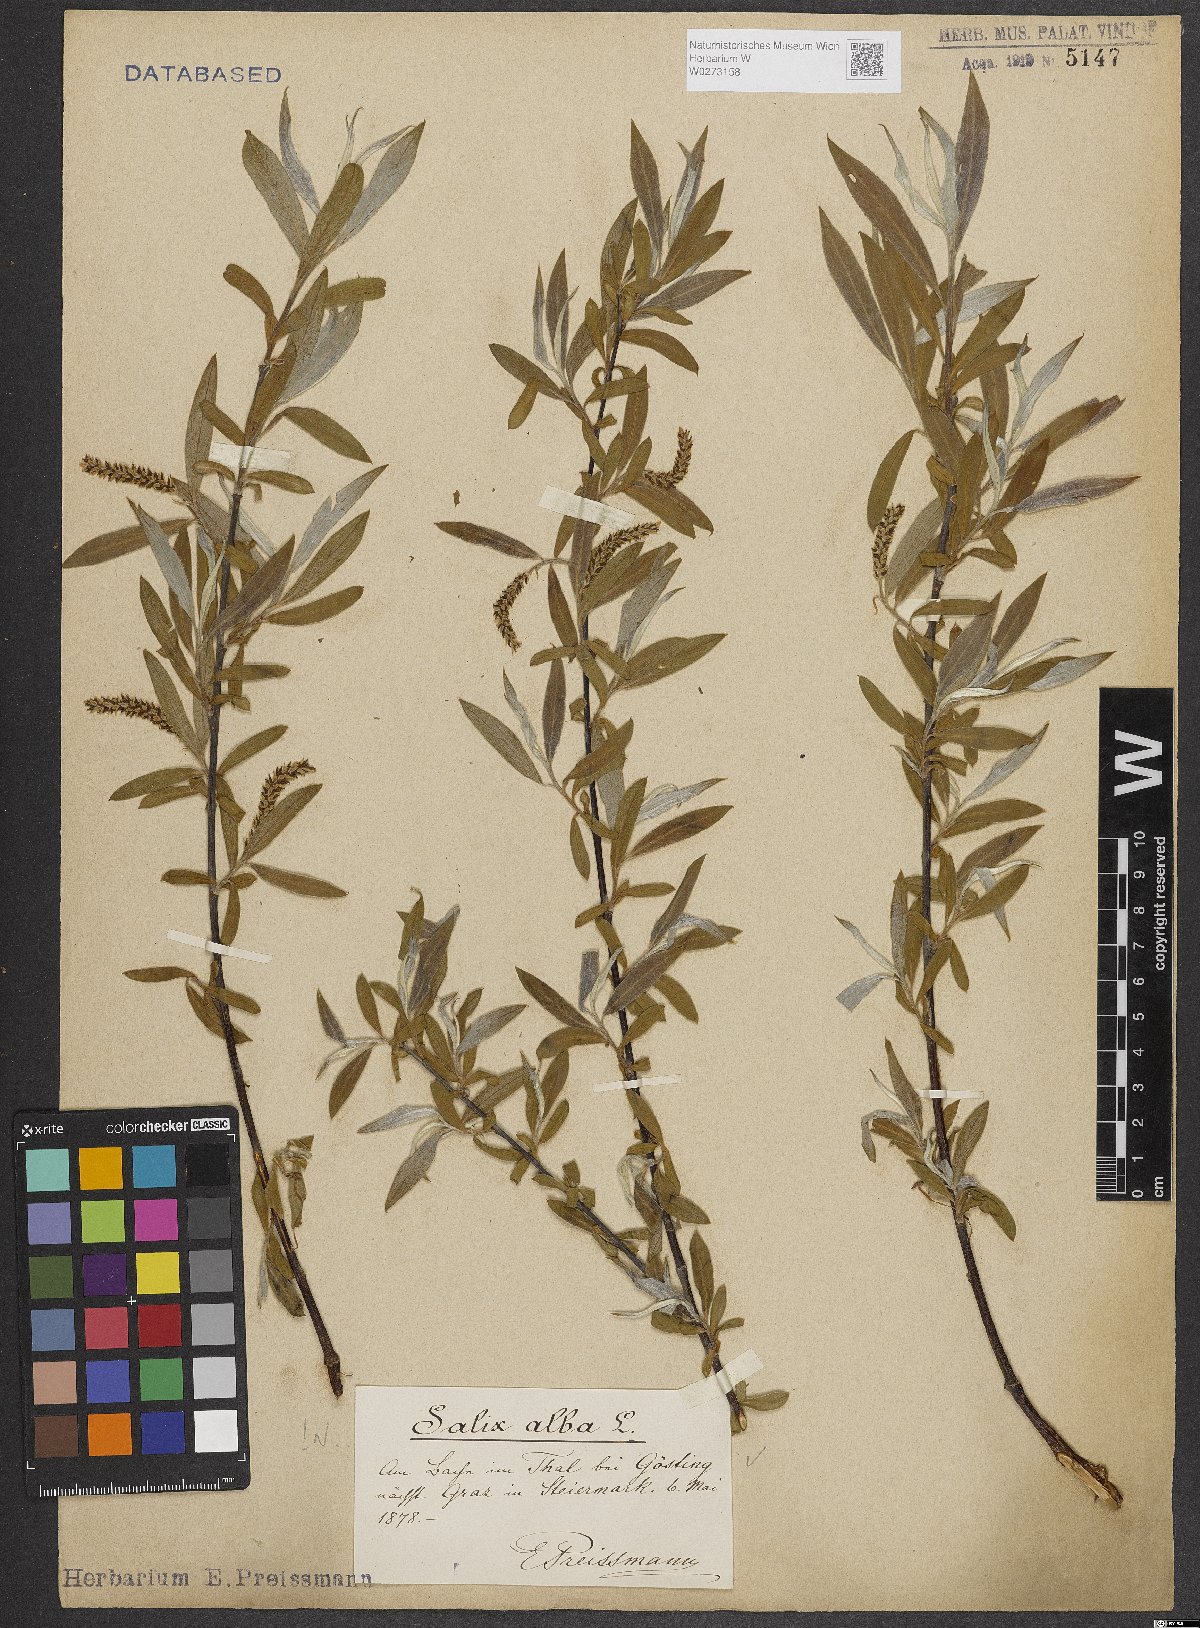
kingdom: Plantae
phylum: Tracheophyta
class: Magnoliopsida
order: Malpighiales
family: Salicaceae
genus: Salix
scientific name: Salix alba
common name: White willow
